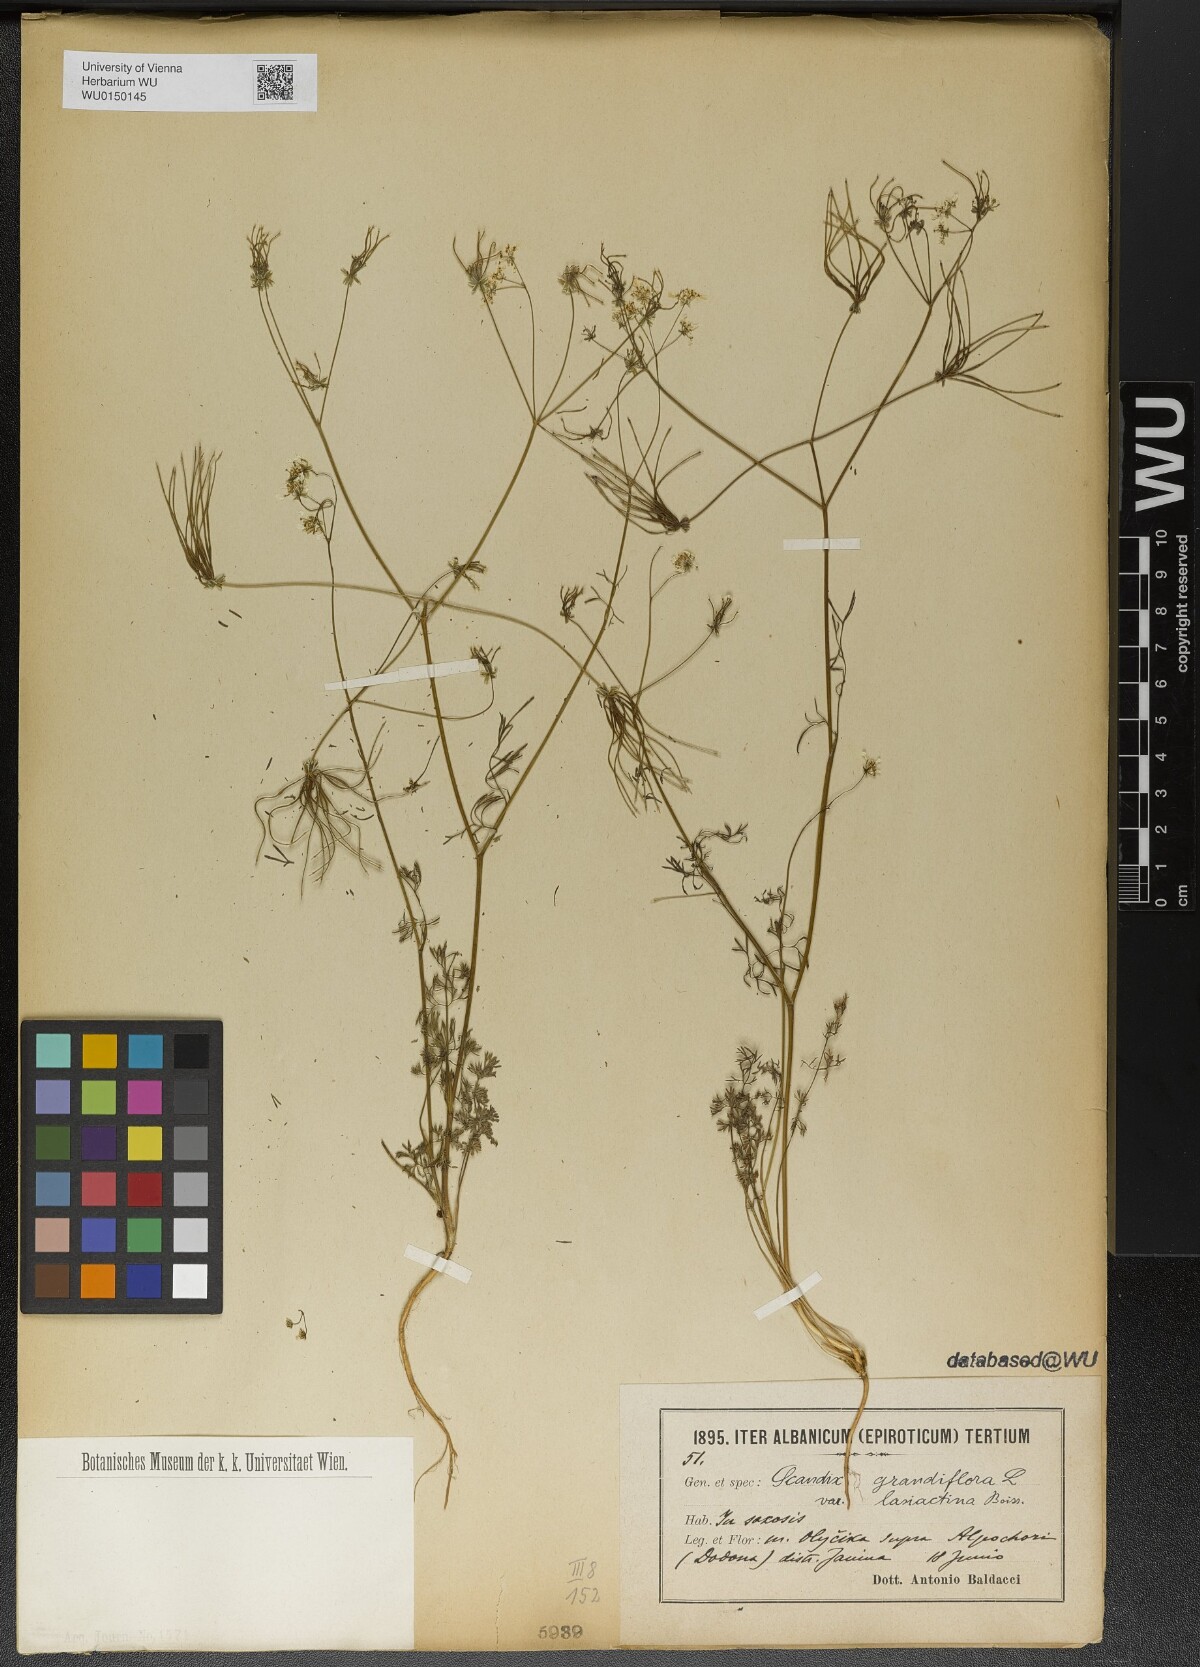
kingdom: Plantae
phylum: Tracheophyta
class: Magnoliopsida
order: Apiales
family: Apiaceae
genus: Scandix
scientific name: Scandix australis
